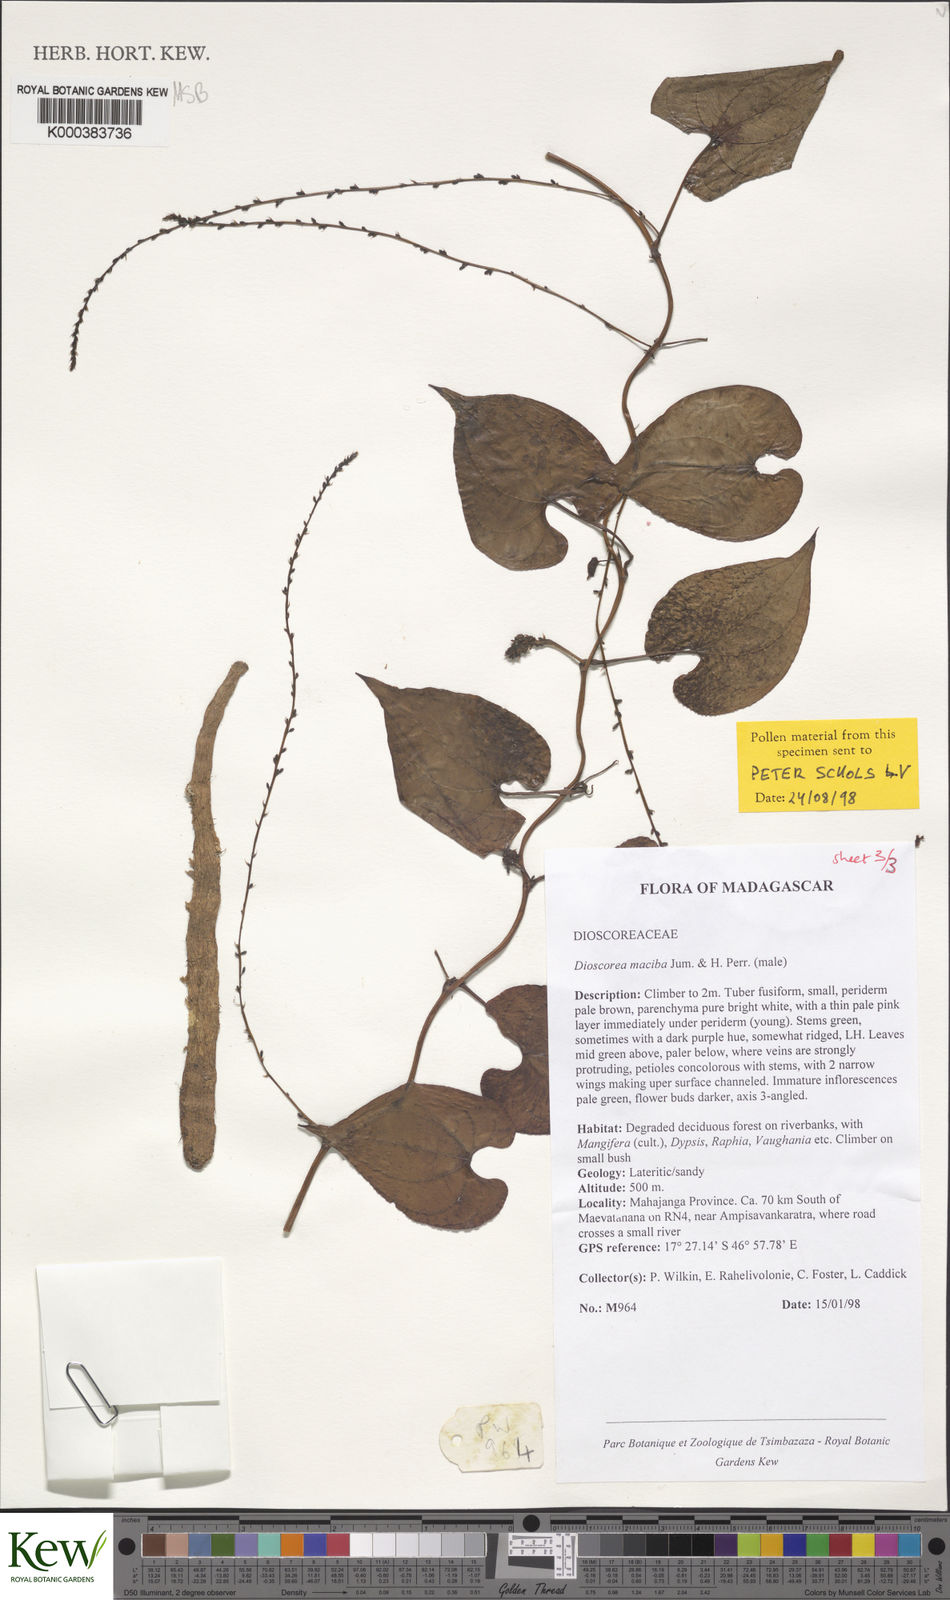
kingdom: Plantae
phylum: Tracheophyta
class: Liliopsida
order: Dioscoreales
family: Dioscoreaceae
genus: Dioscorea
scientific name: Dioscorea
